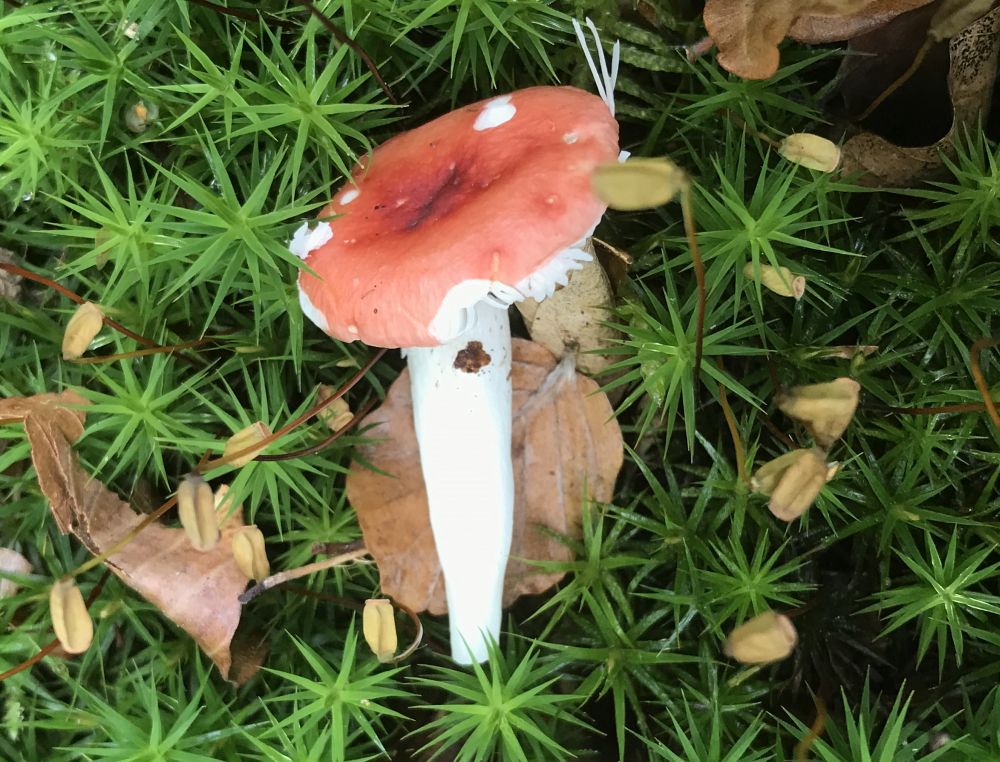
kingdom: Fungi
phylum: Basidiomycota
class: Agaricomycetes
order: Russulales
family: Russulaceae
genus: Russula
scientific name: Russula nobilis
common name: lille gift-skørhat
